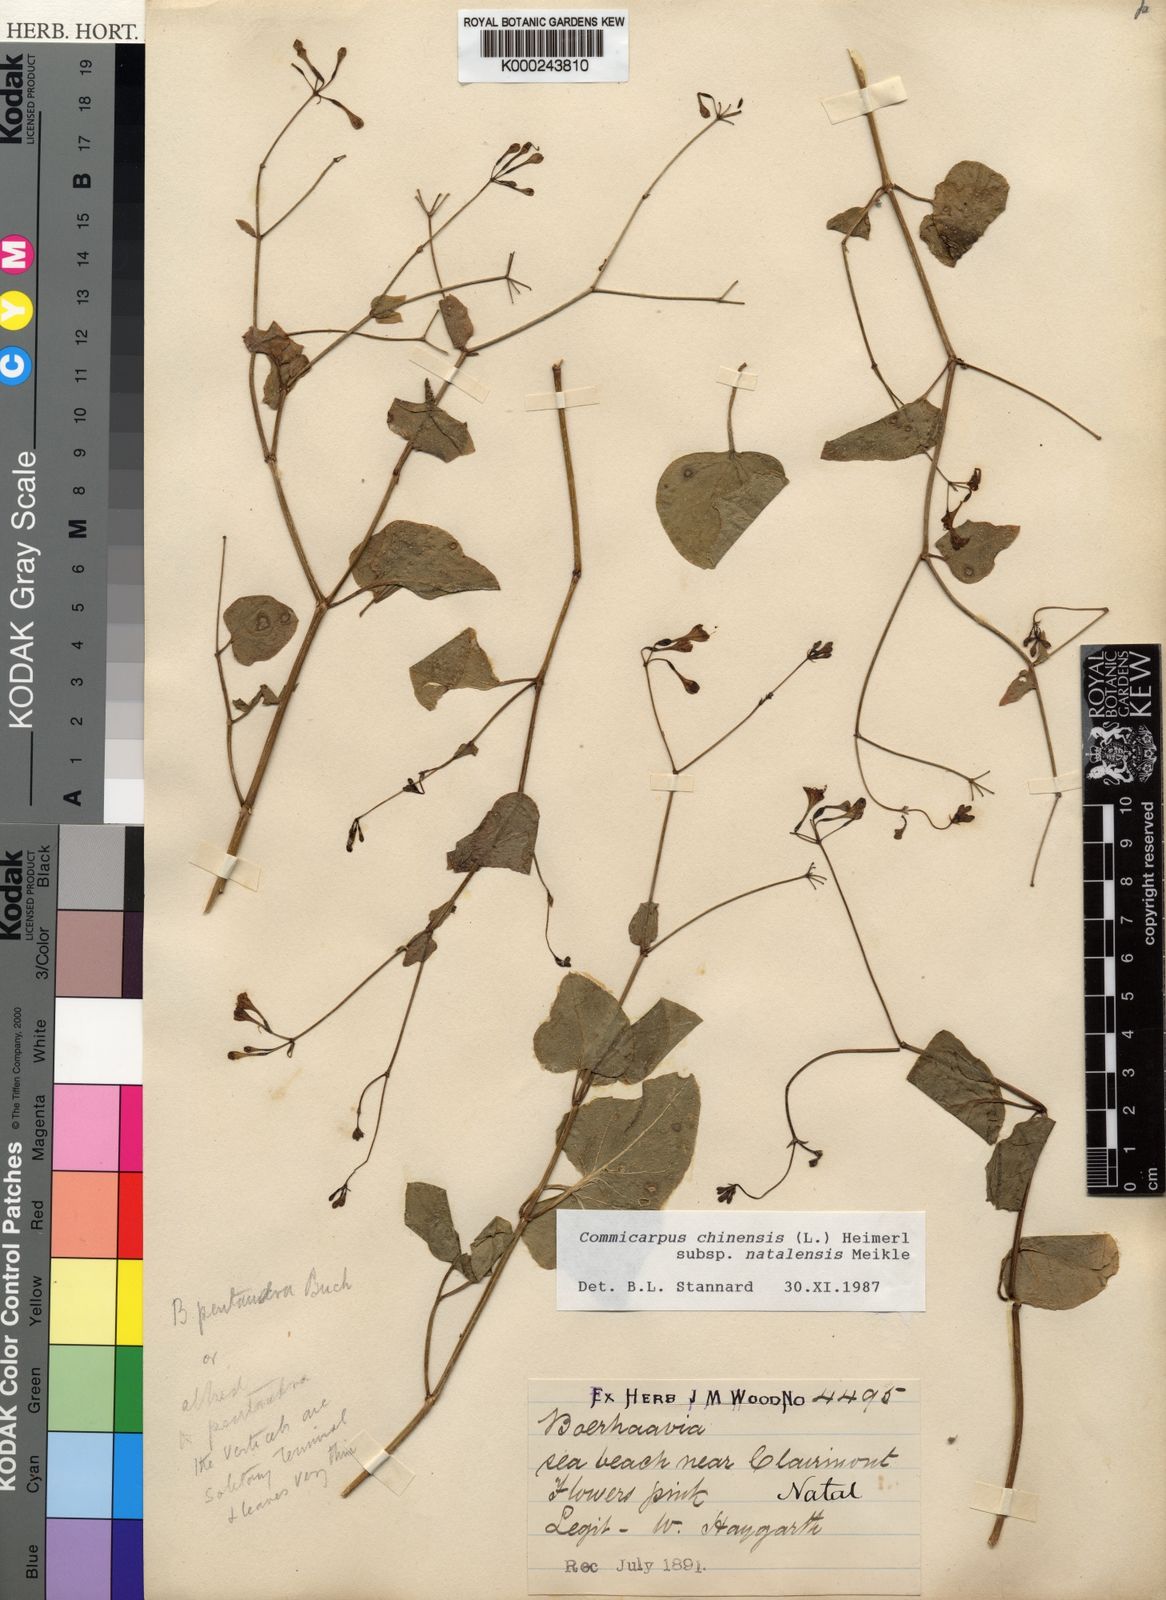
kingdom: Plantae
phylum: Tracheophyta
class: Magnoliopsida
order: Caryophyllales
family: Nyctaginaceae
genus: Commicarpus
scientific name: Commicarpus chinensis
